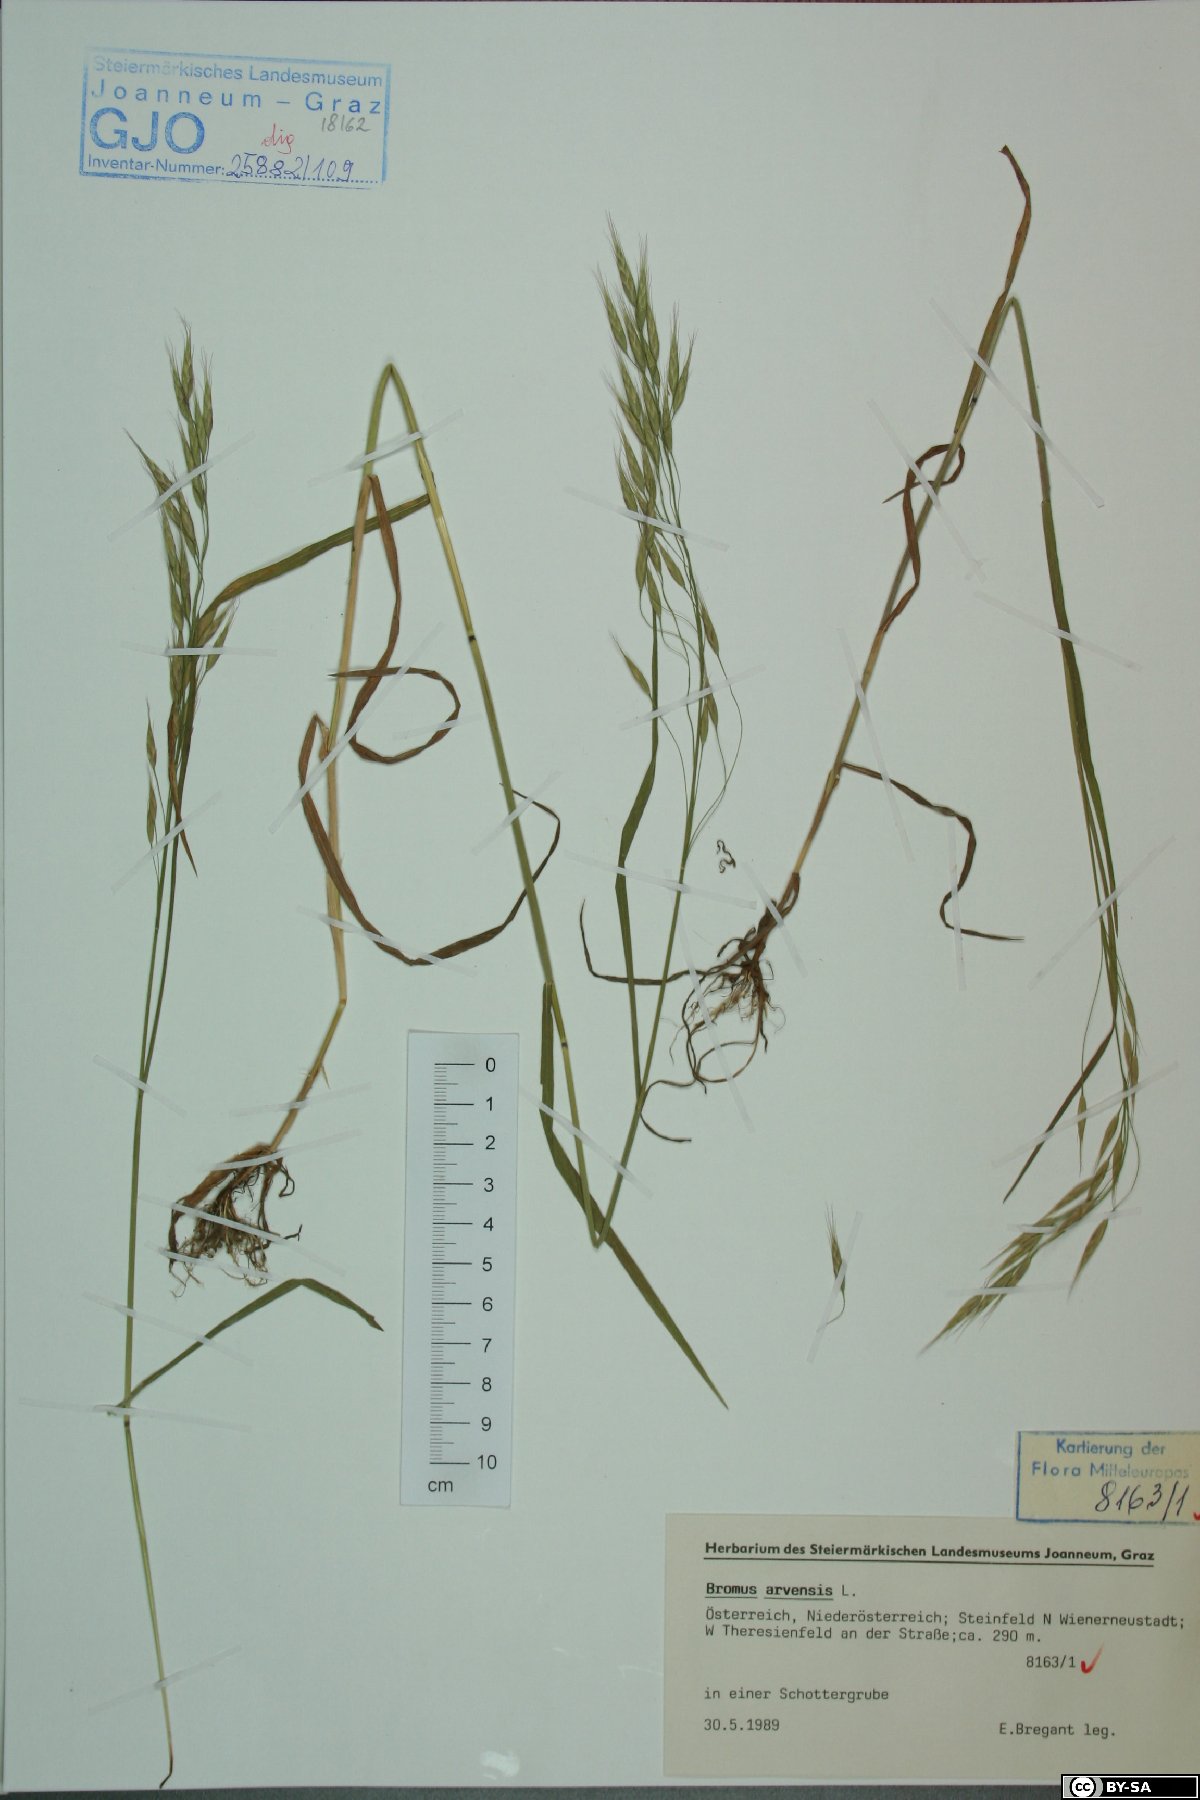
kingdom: Plantae
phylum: Tracheophyta
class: Liliopsida
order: Poales
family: Poaceae
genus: Bromus
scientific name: Bromus arvensis
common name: Field brome
